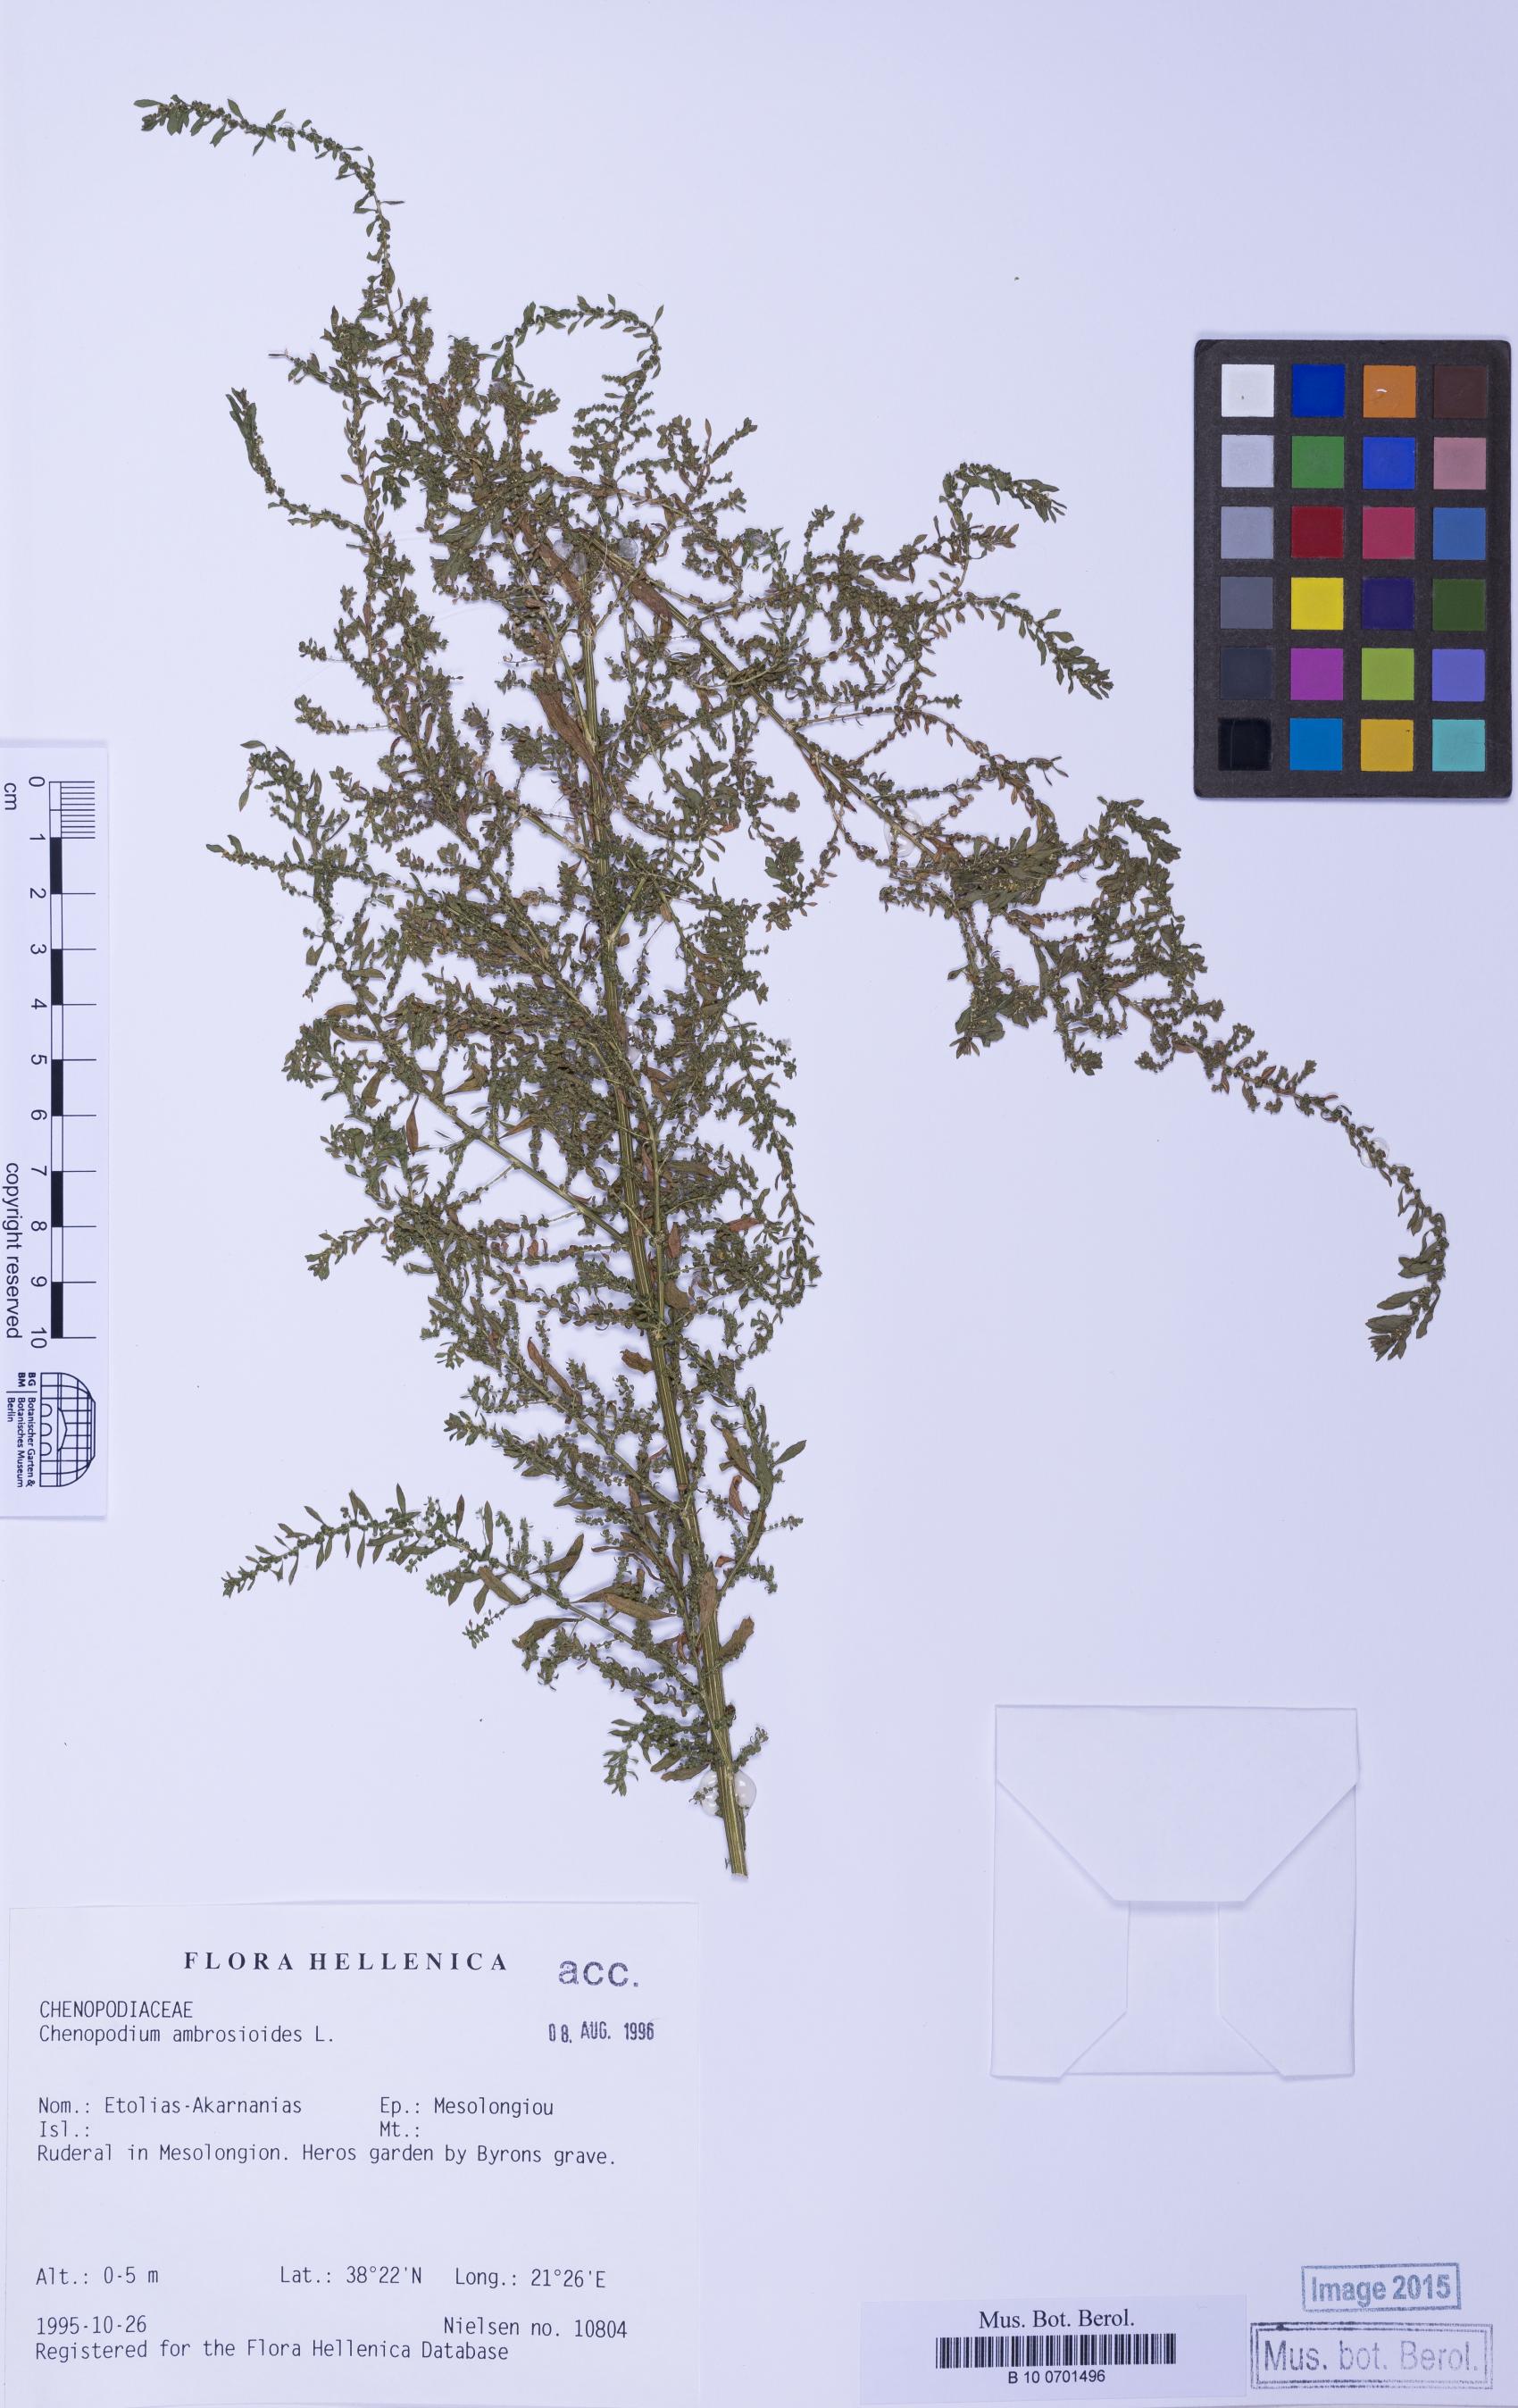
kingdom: Plantae
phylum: Tracheophyta
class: Magnoliopsida
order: Caryophyllales
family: Amaranthaceae
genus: Dysphania
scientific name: Dysphania ambrosioides
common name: Wormseed
